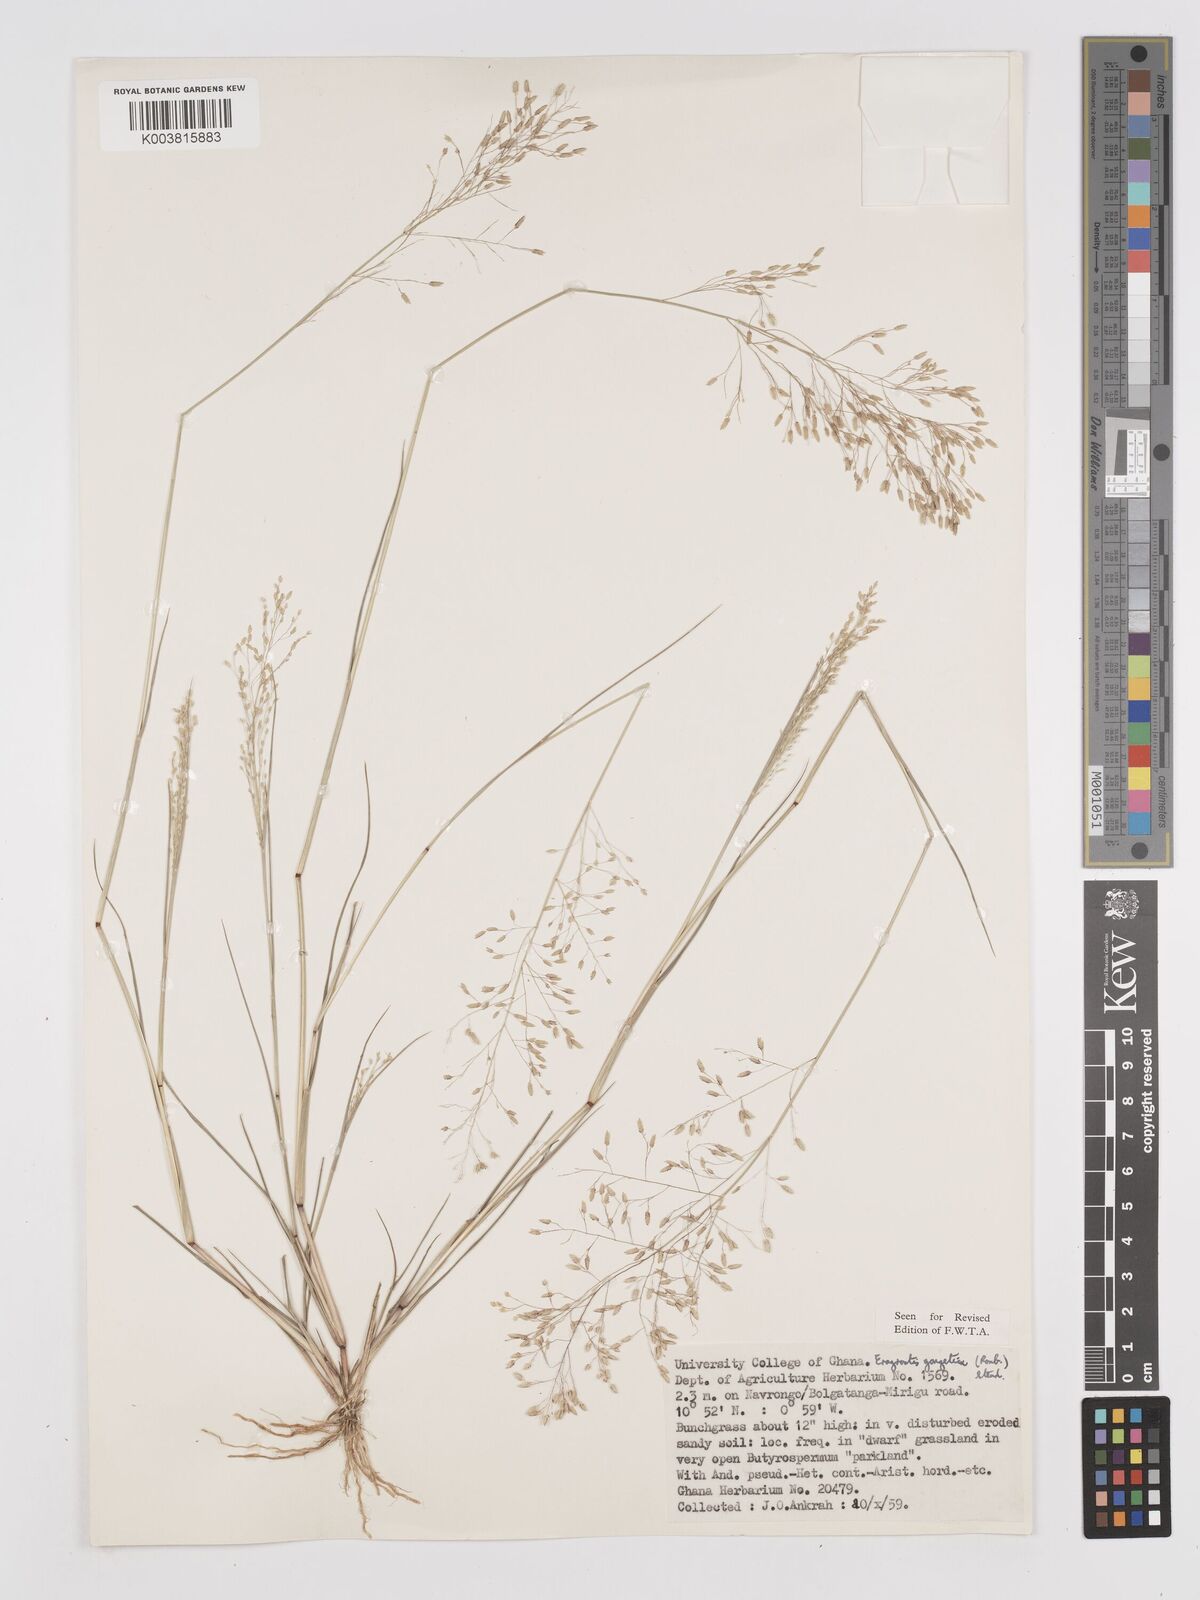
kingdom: Plantae
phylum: Tracheophyta
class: Liliopsida
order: Poales
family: Poaceae
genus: Eragrostis
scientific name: Eragrostis gangetica
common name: Slimflower lovegrass
